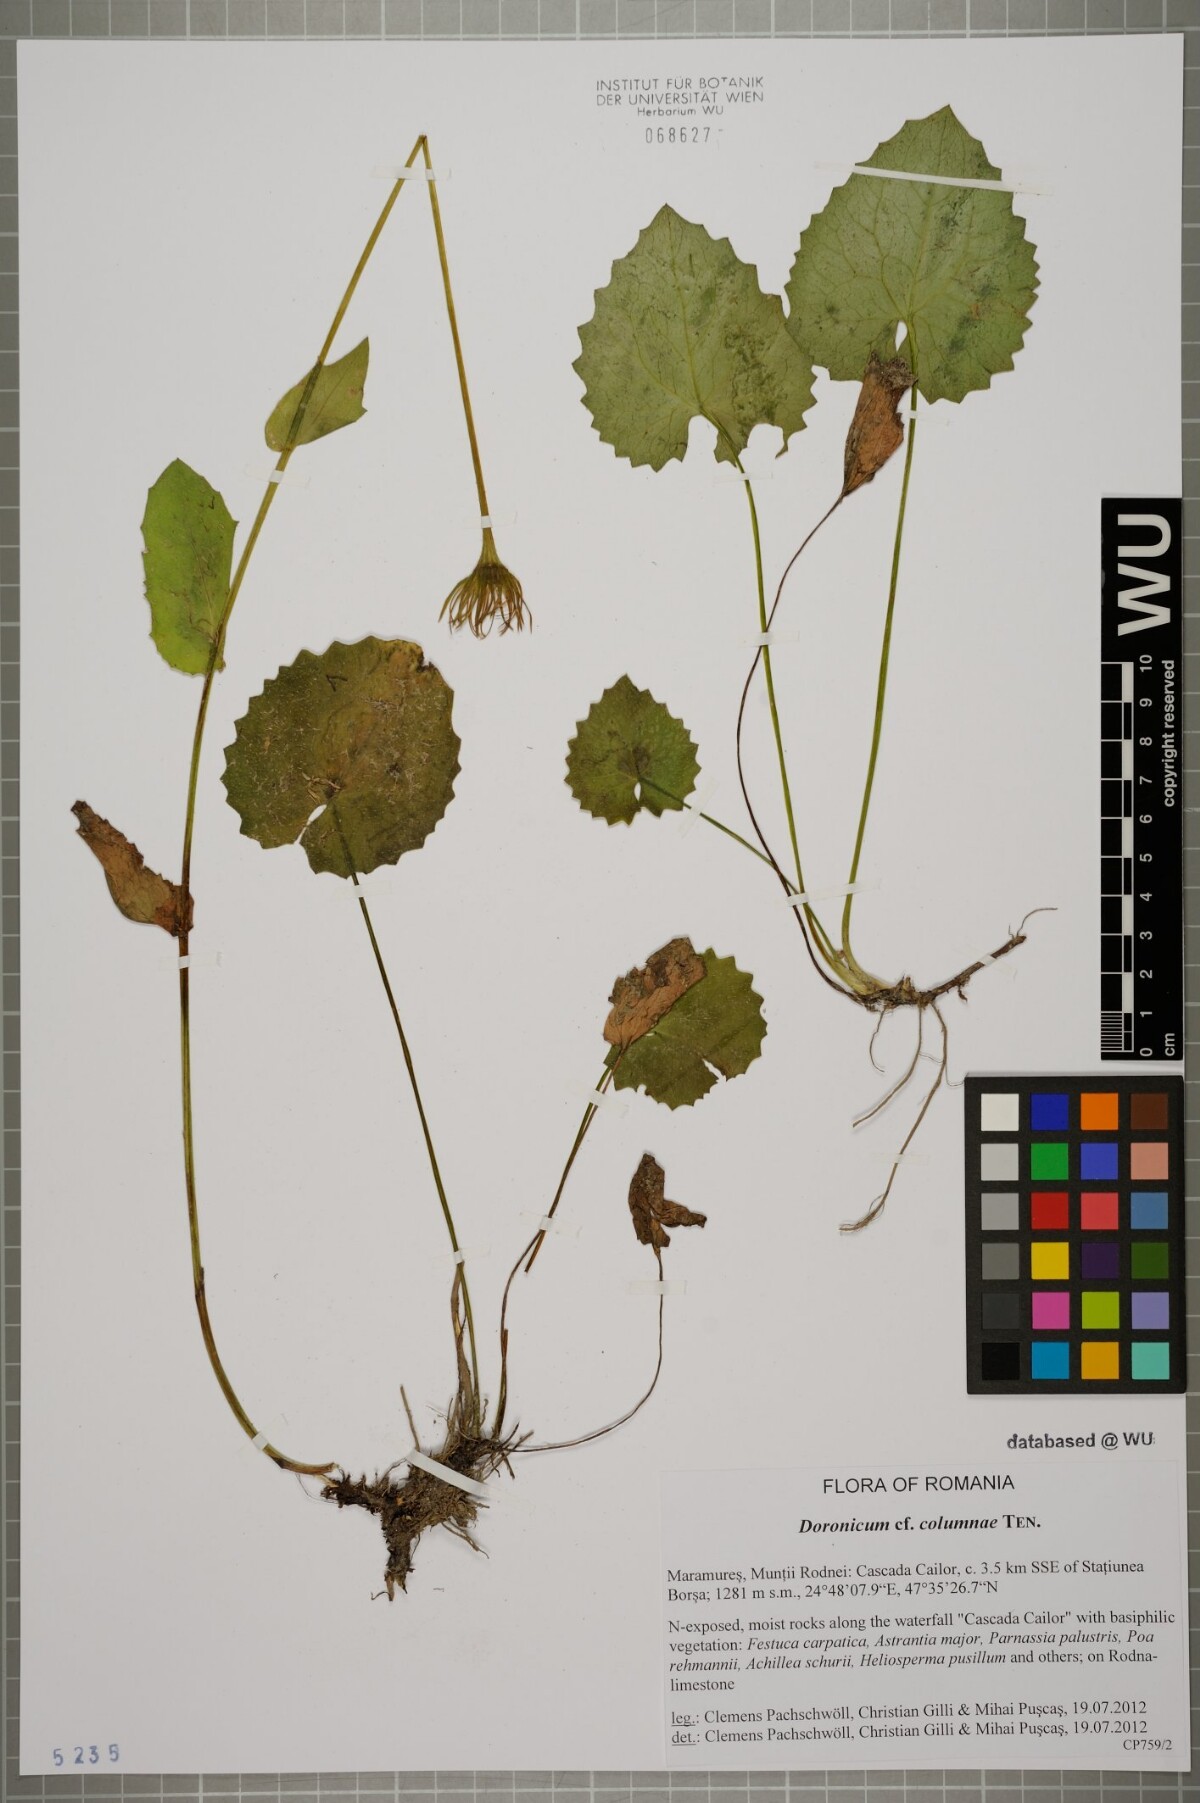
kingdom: Plantae
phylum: Tracheophyta
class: Magnoliopsida
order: Asterales
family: Asteraceae
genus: Doronicum
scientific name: Doronicum columnae
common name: Eastern leopard's-bane
